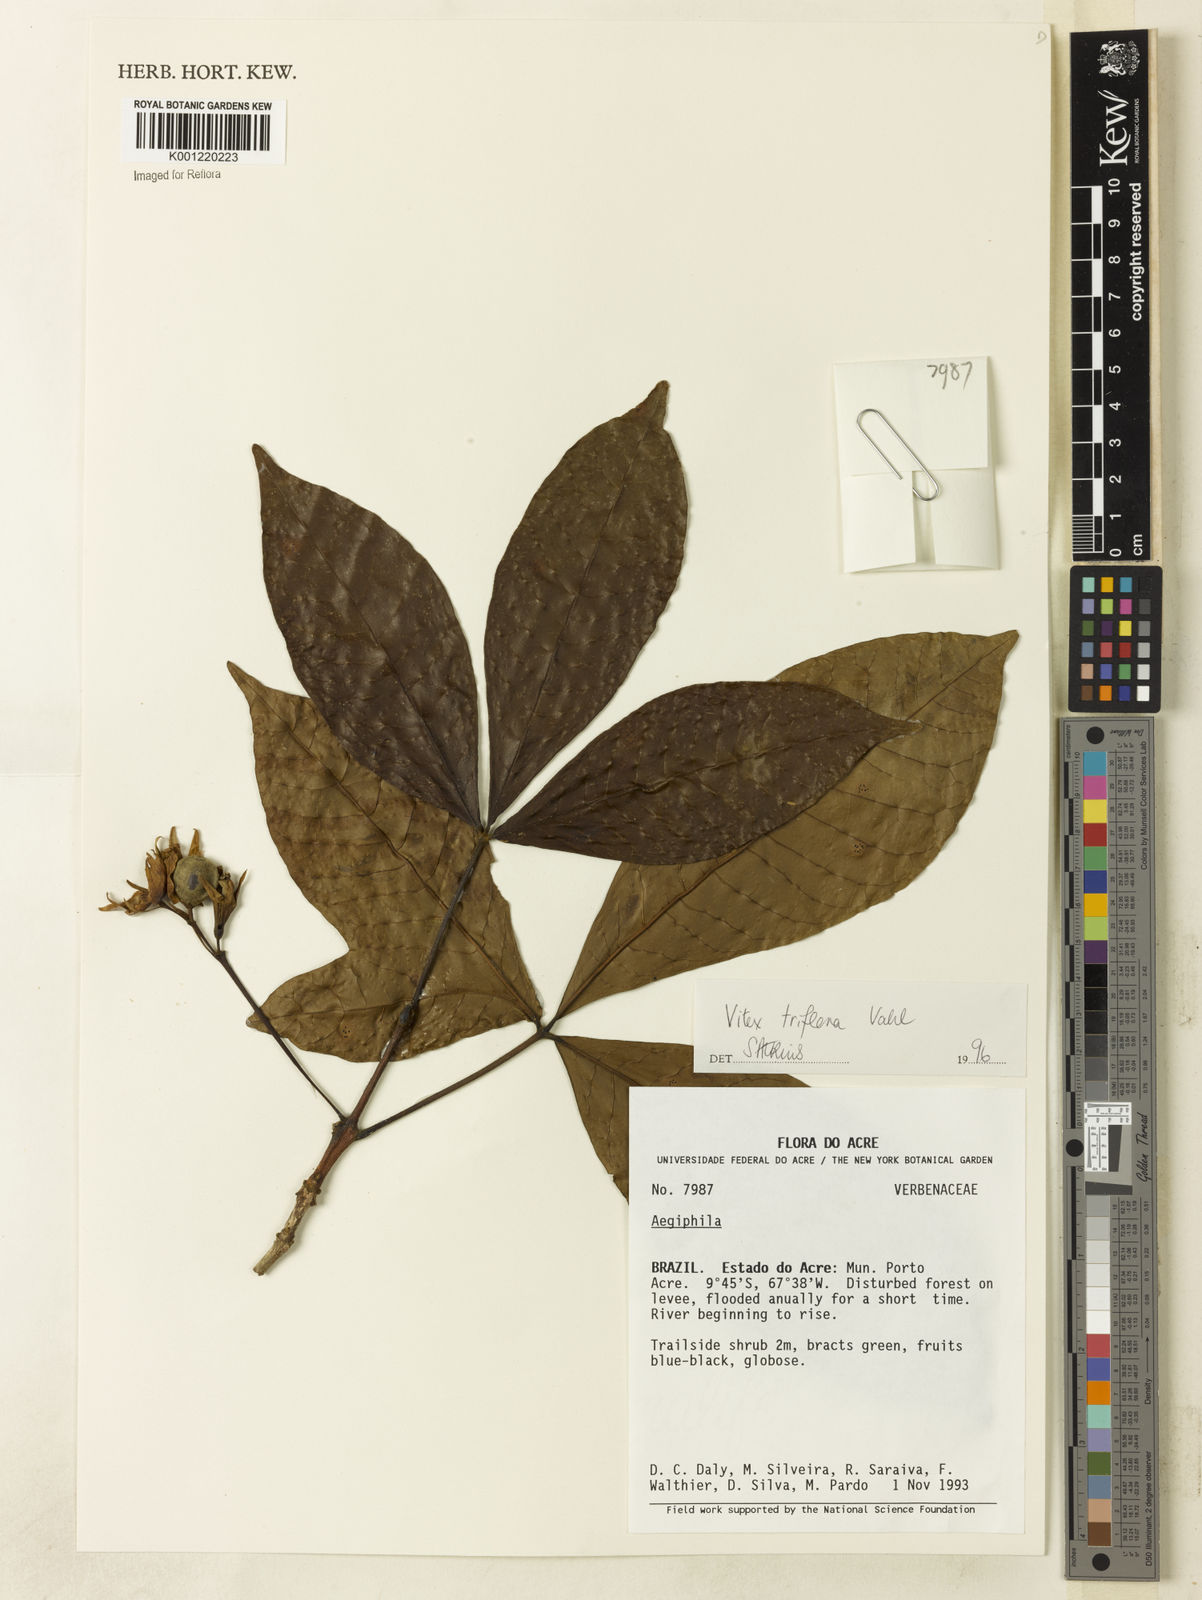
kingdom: Plantae
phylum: Tracheophyta
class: Magnoliopsida
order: Lamiales
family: Lamiaceae
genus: Vitex
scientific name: Vitex triflora
